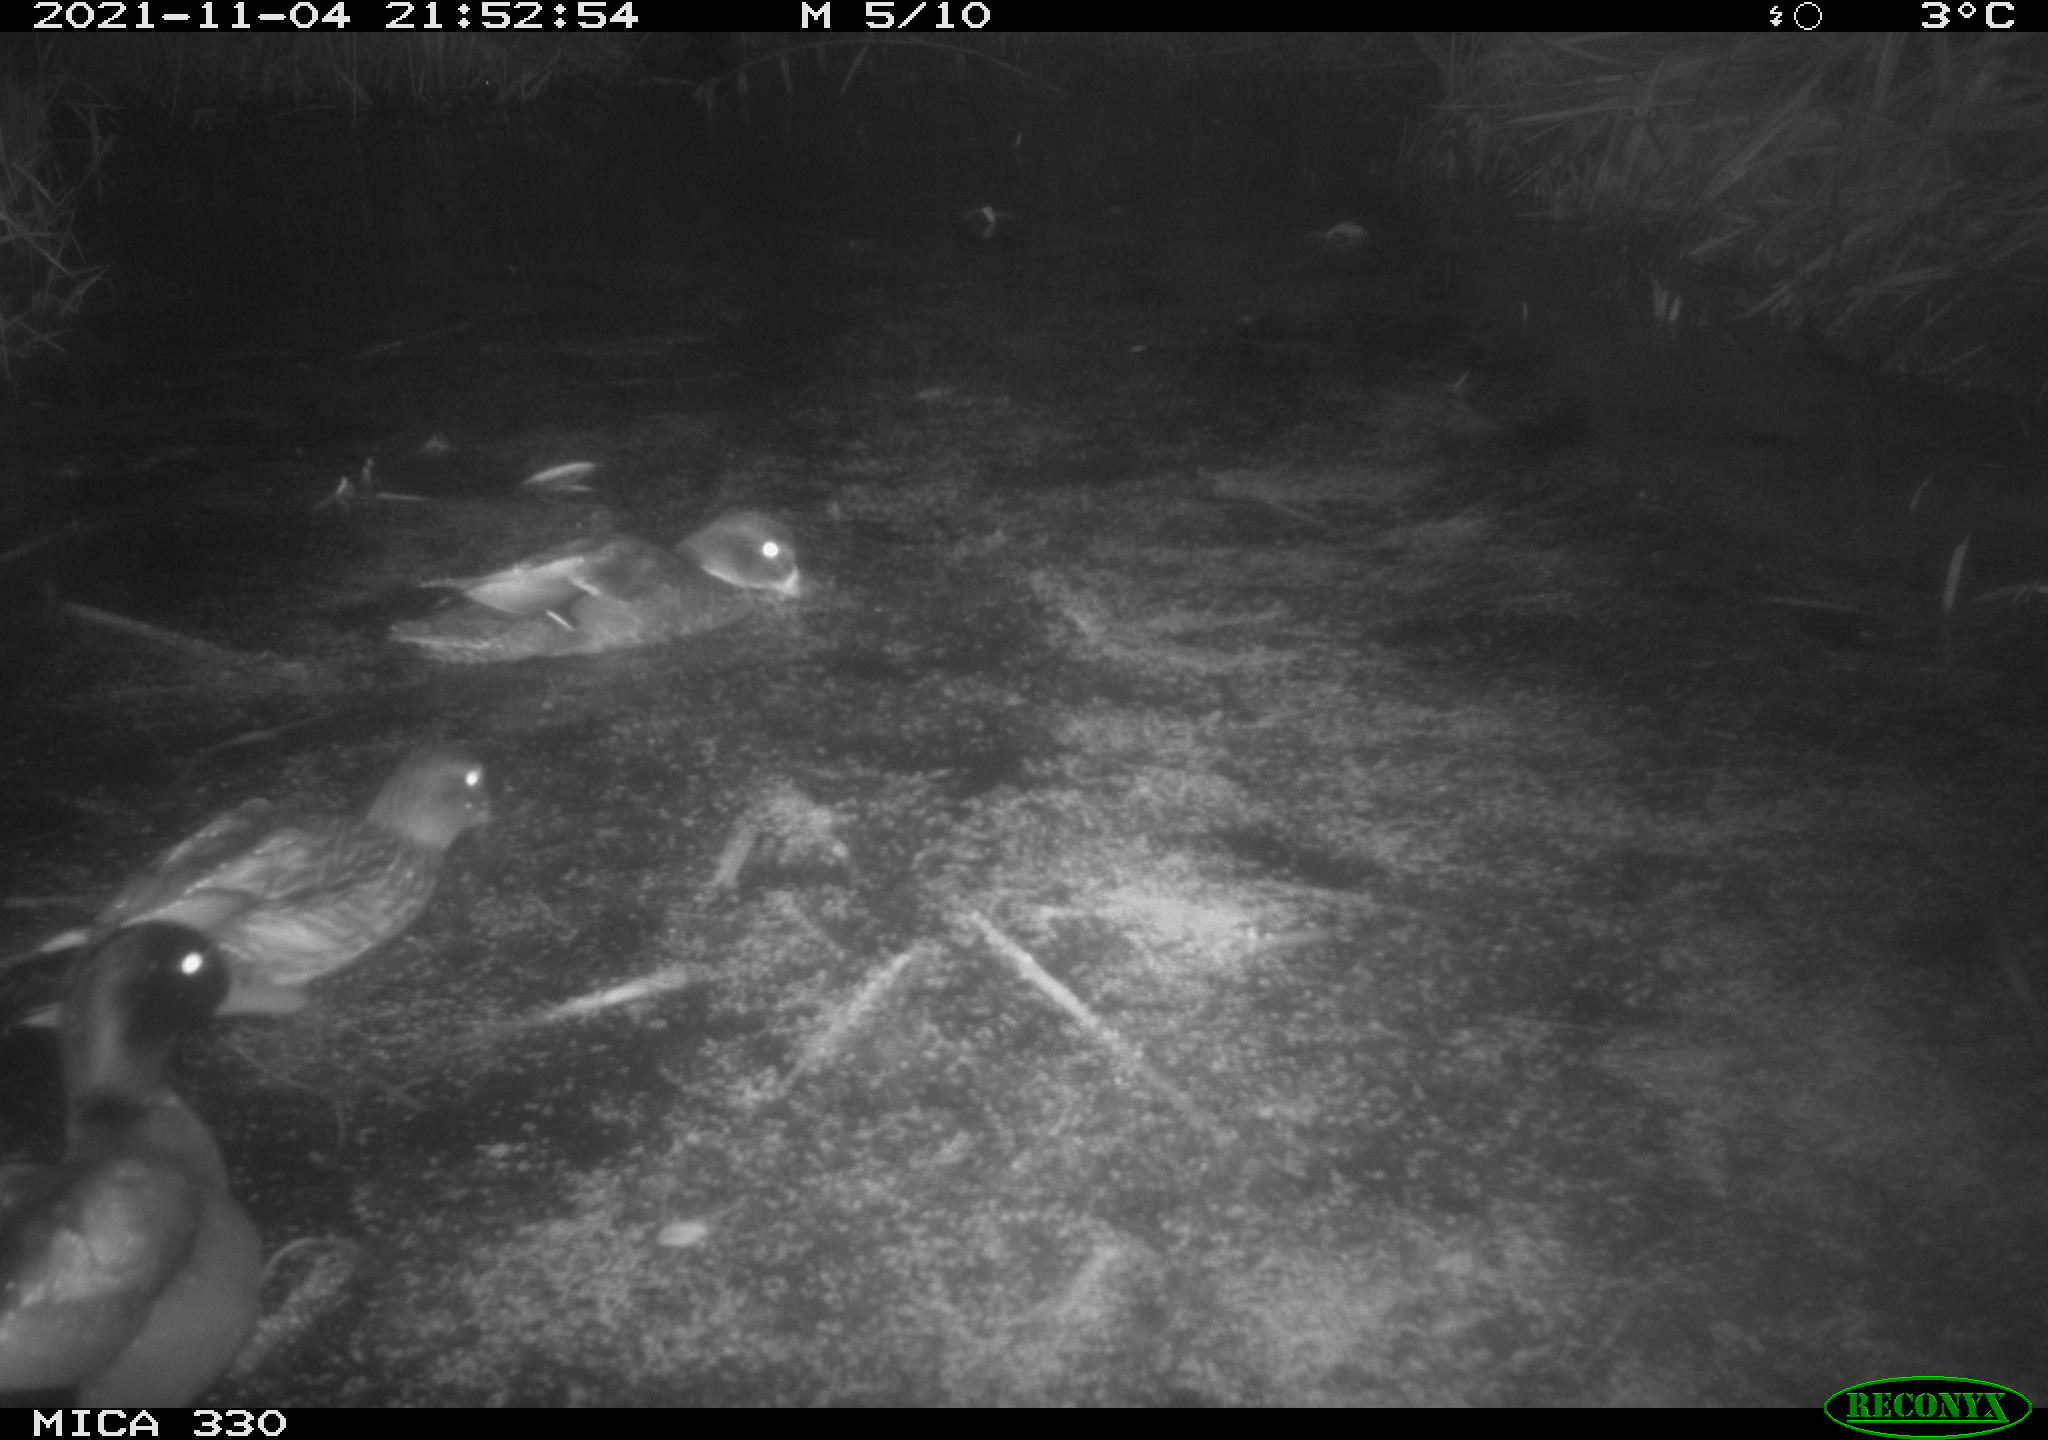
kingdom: Animalia
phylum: Chordata
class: Aves
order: Anseriformes
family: Anatidae
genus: Anas
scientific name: Anas platyrhynchos
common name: Mallard
